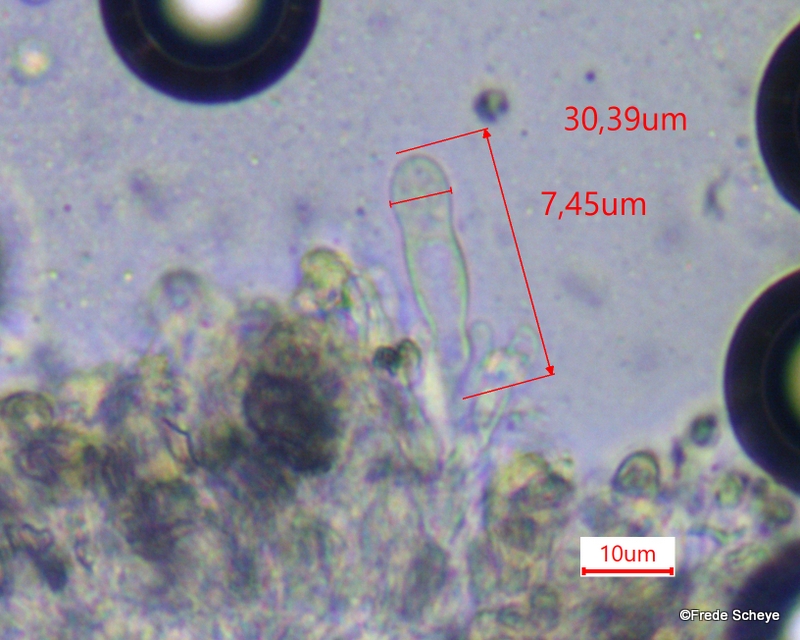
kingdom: Fungi
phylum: Basidiomycota
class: Agaricomycetes
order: Agaricales
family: Entolomataceae
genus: Clitopilus
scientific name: Clitopilus geminus
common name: kødfarvet troldhat
